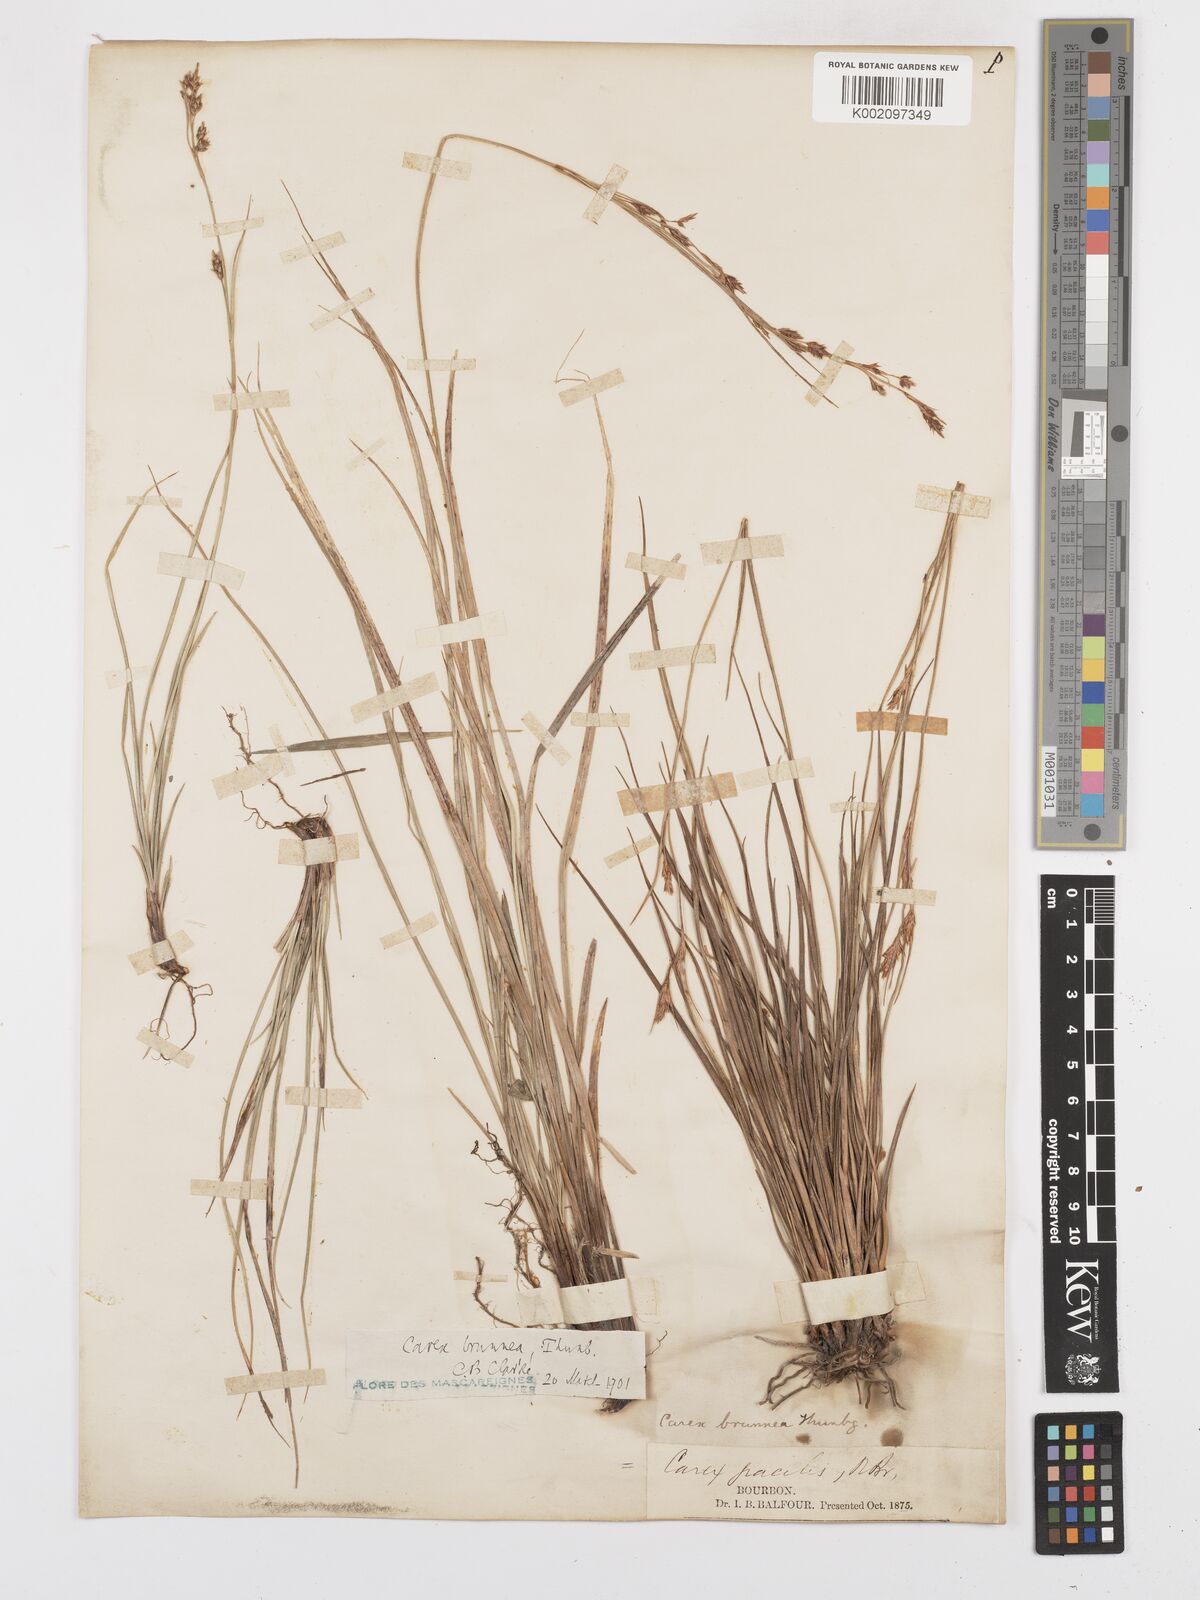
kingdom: Plantae
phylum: Tracheophyta
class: Liliopsida
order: Poales
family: Cyperaceae
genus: Carex
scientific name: Carex brunnea
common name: Greater brown sedge
